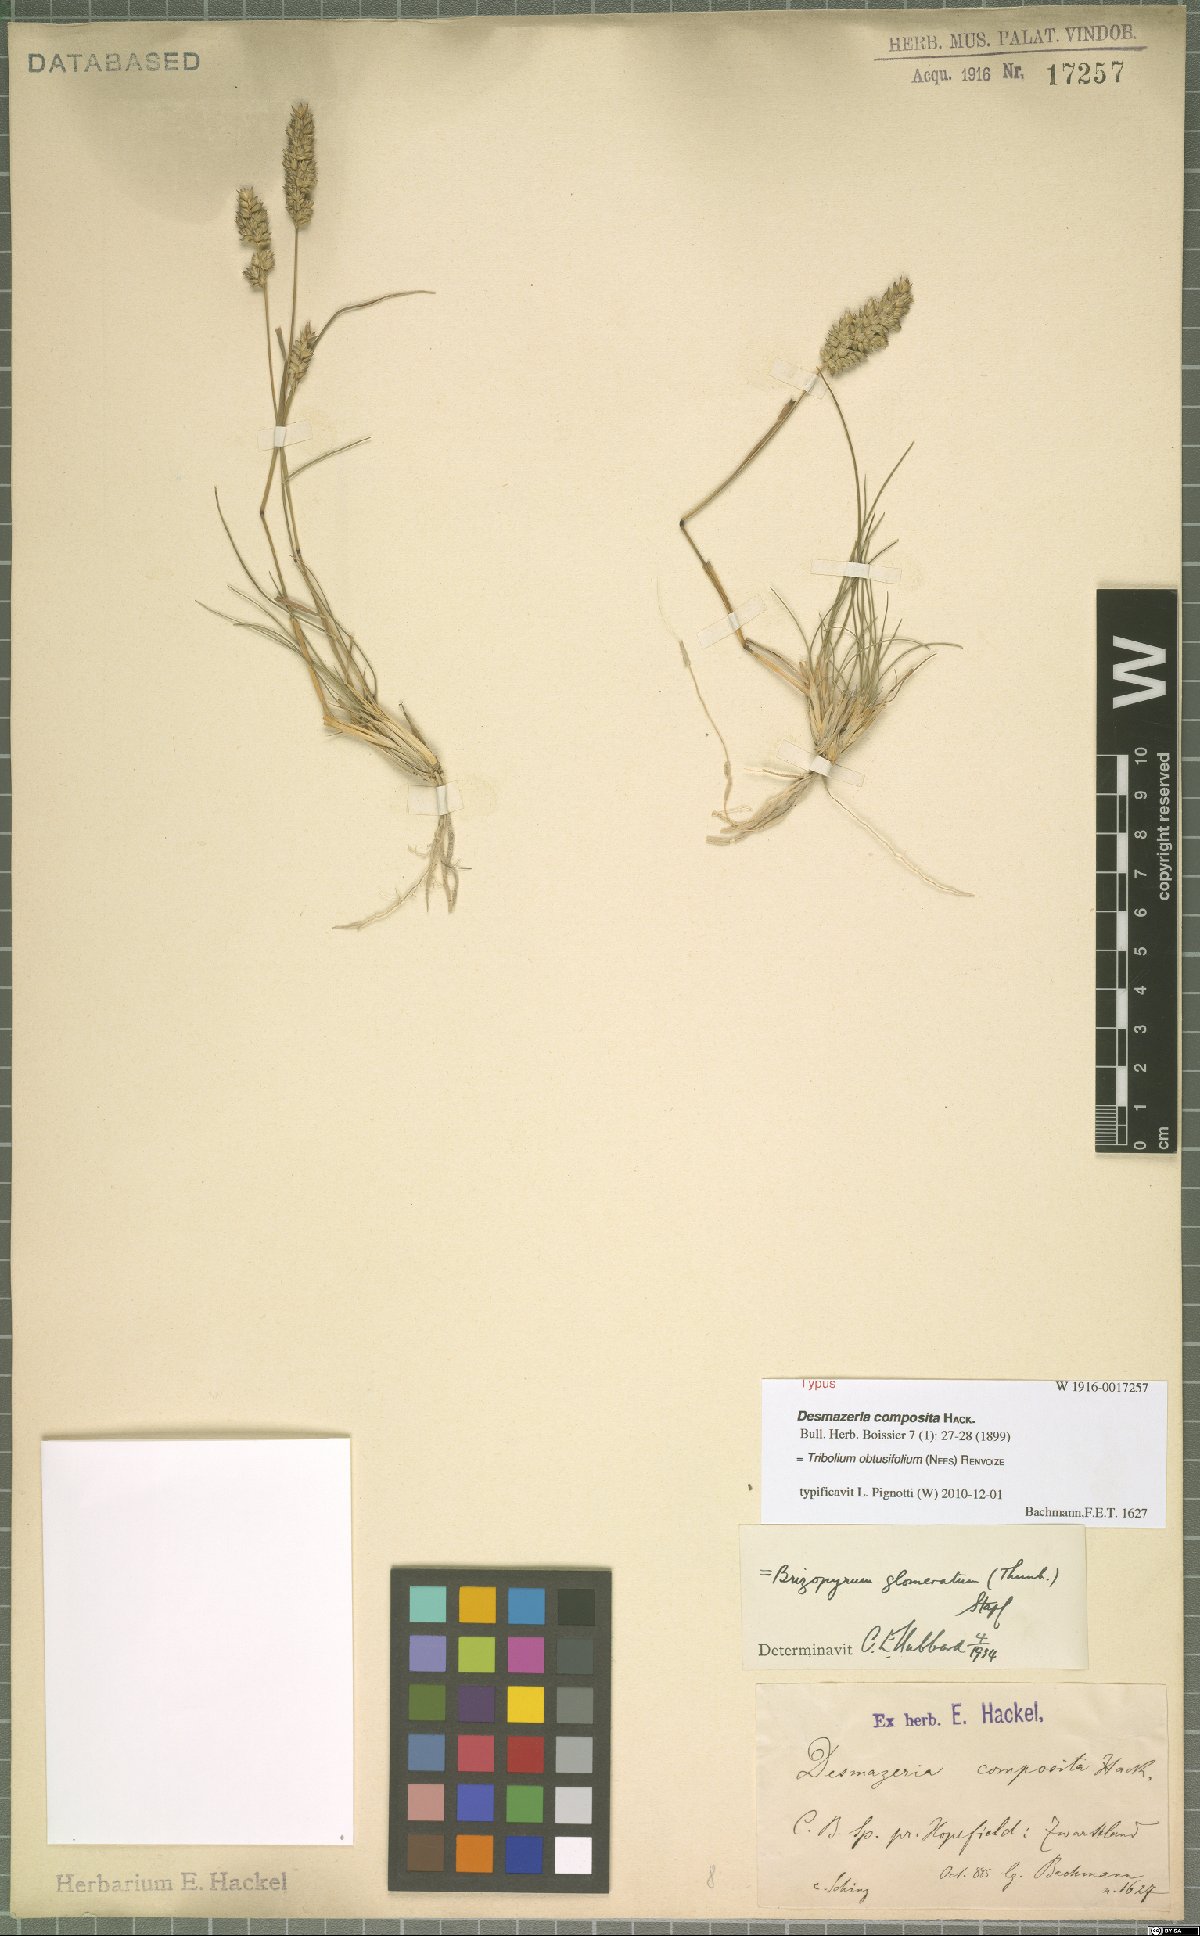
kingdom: Plantae
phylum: Tracheophyta
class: Liliopsida
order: Poales
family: Poaceae
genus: Tribolium
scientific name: Tribolium obtusifolium
